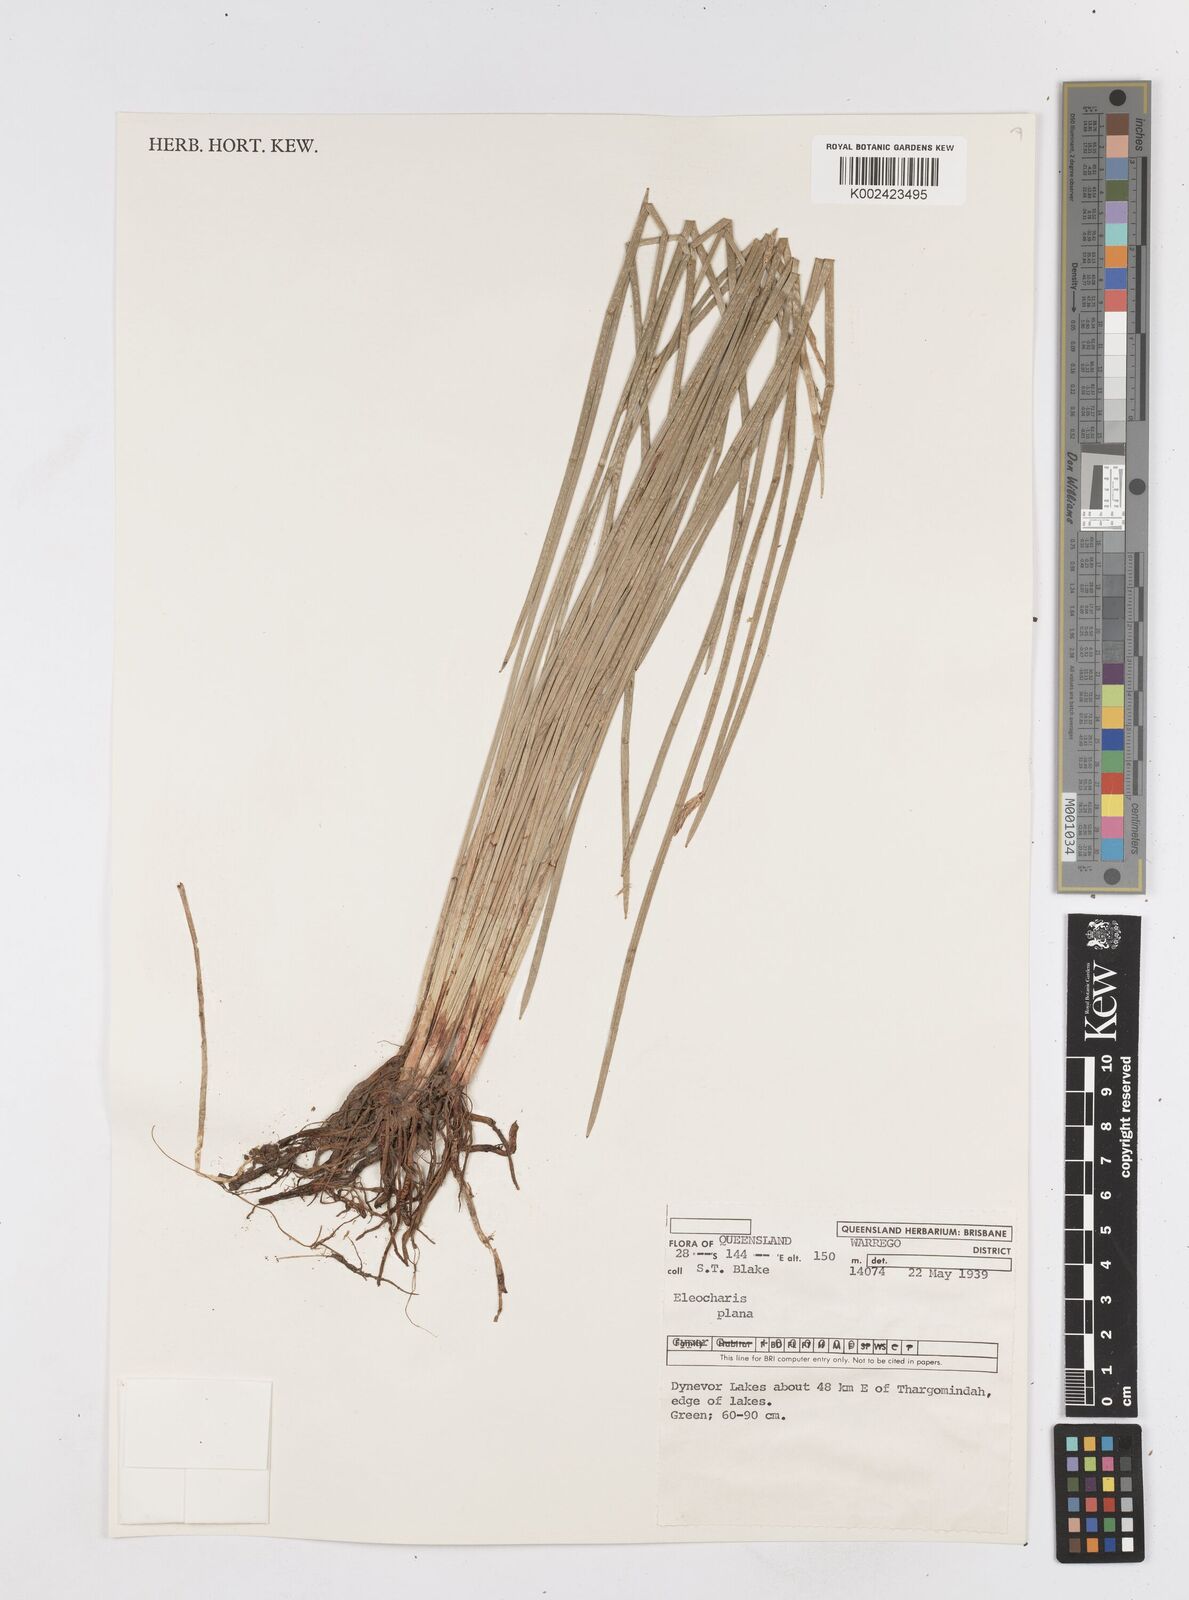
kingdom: Plantae
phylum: Tracheophyta
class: Liliopsida
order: Poales
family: Cyperaceae
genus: Eleocharis
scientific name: Eleocharis plana
